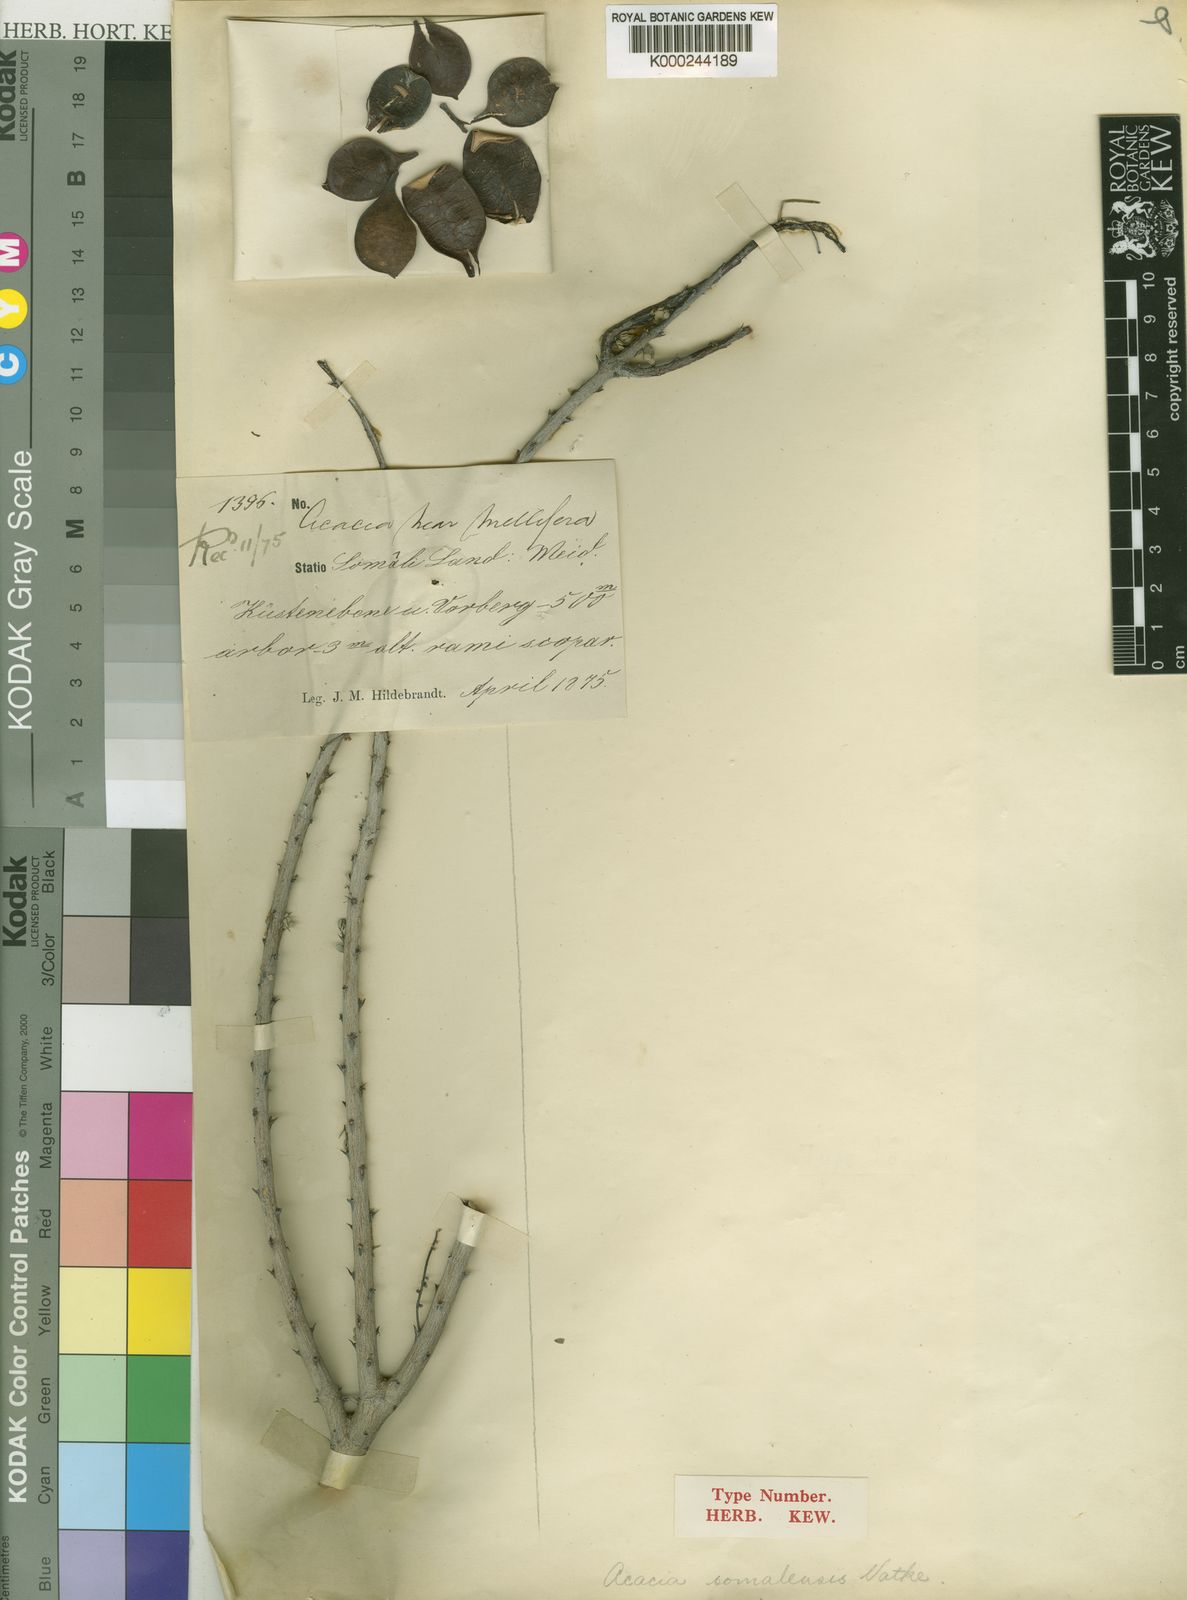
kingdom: Plantae
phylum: Tracheophyta
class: Magnoliopsida
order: Fabales
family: Fabaceae
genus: Senegalia
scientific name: Senegalia somalensis
